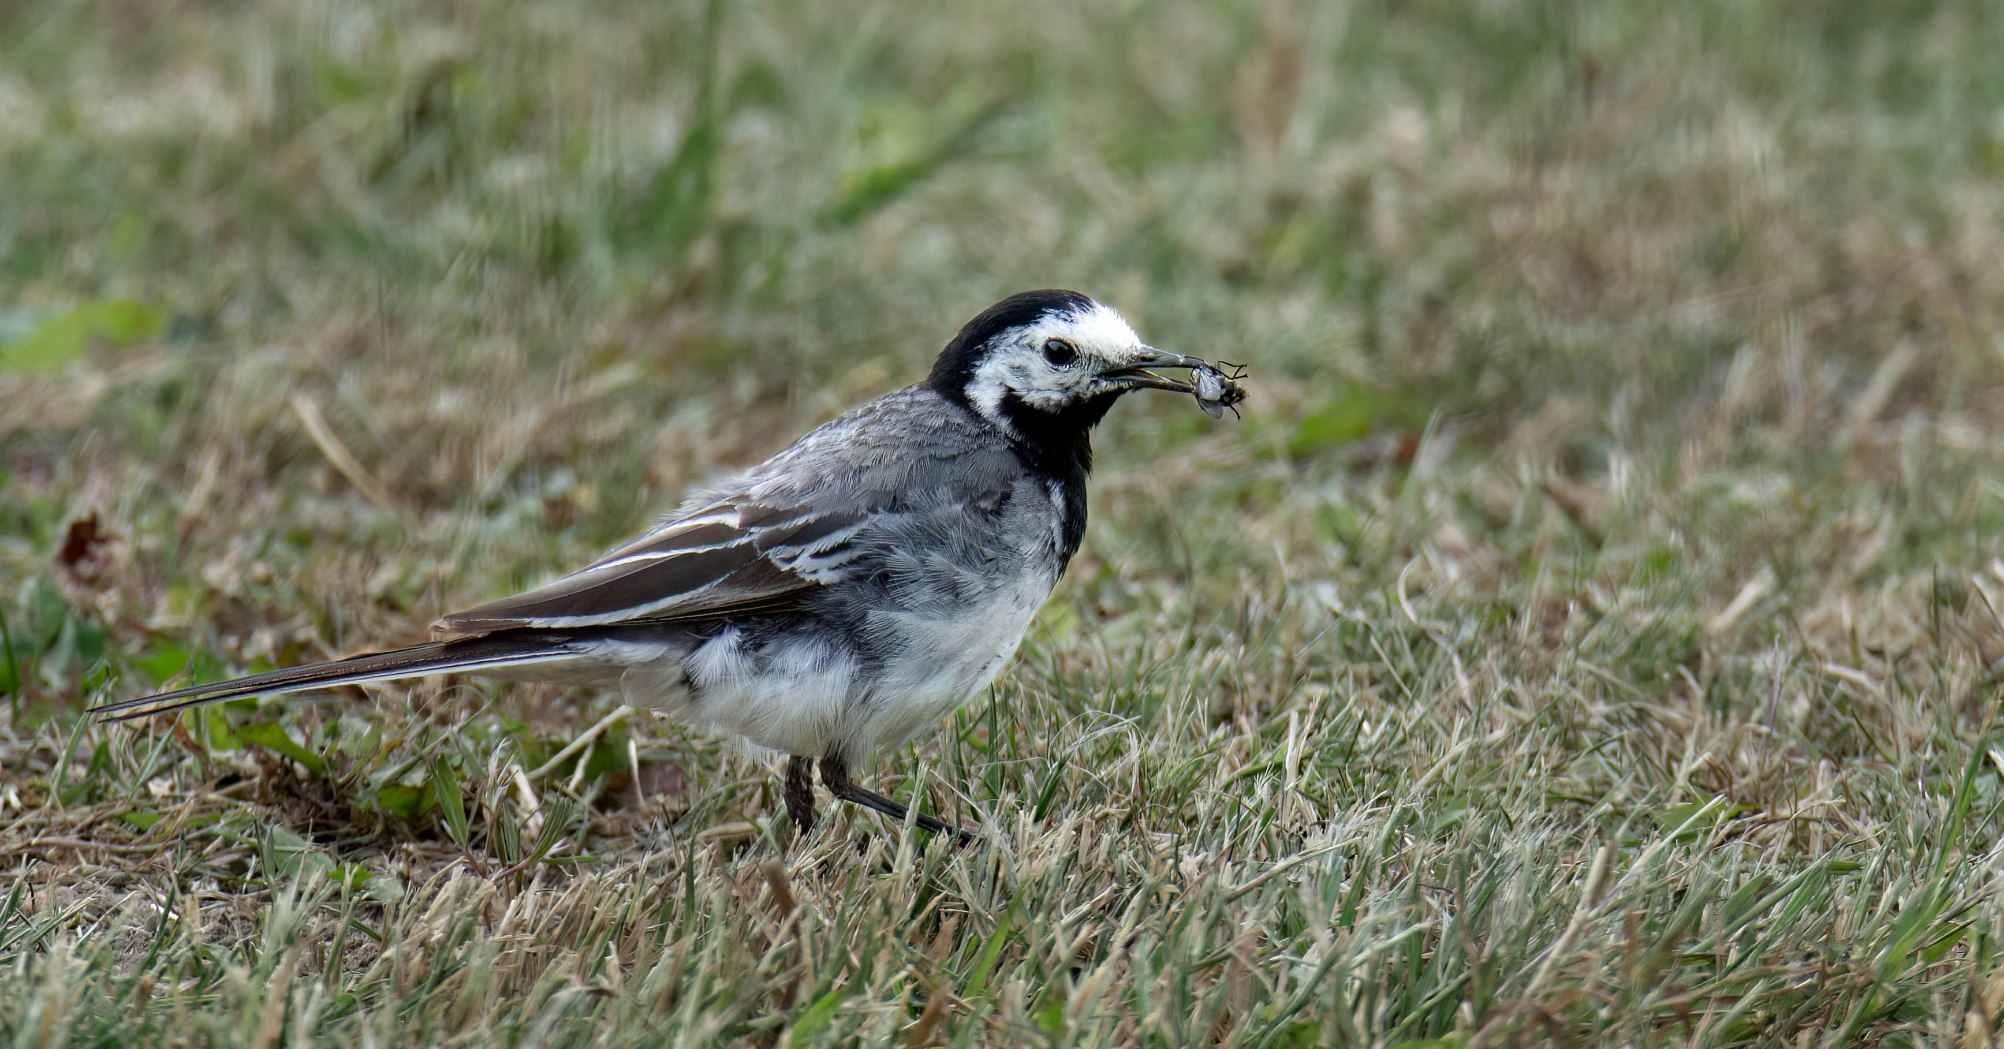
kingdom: Animalia
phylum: Chordata
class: Aves
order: Passeriformes
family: Motacillidae
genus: Motacilla
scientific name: Motacilla alba
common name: Hvid vipstjert
